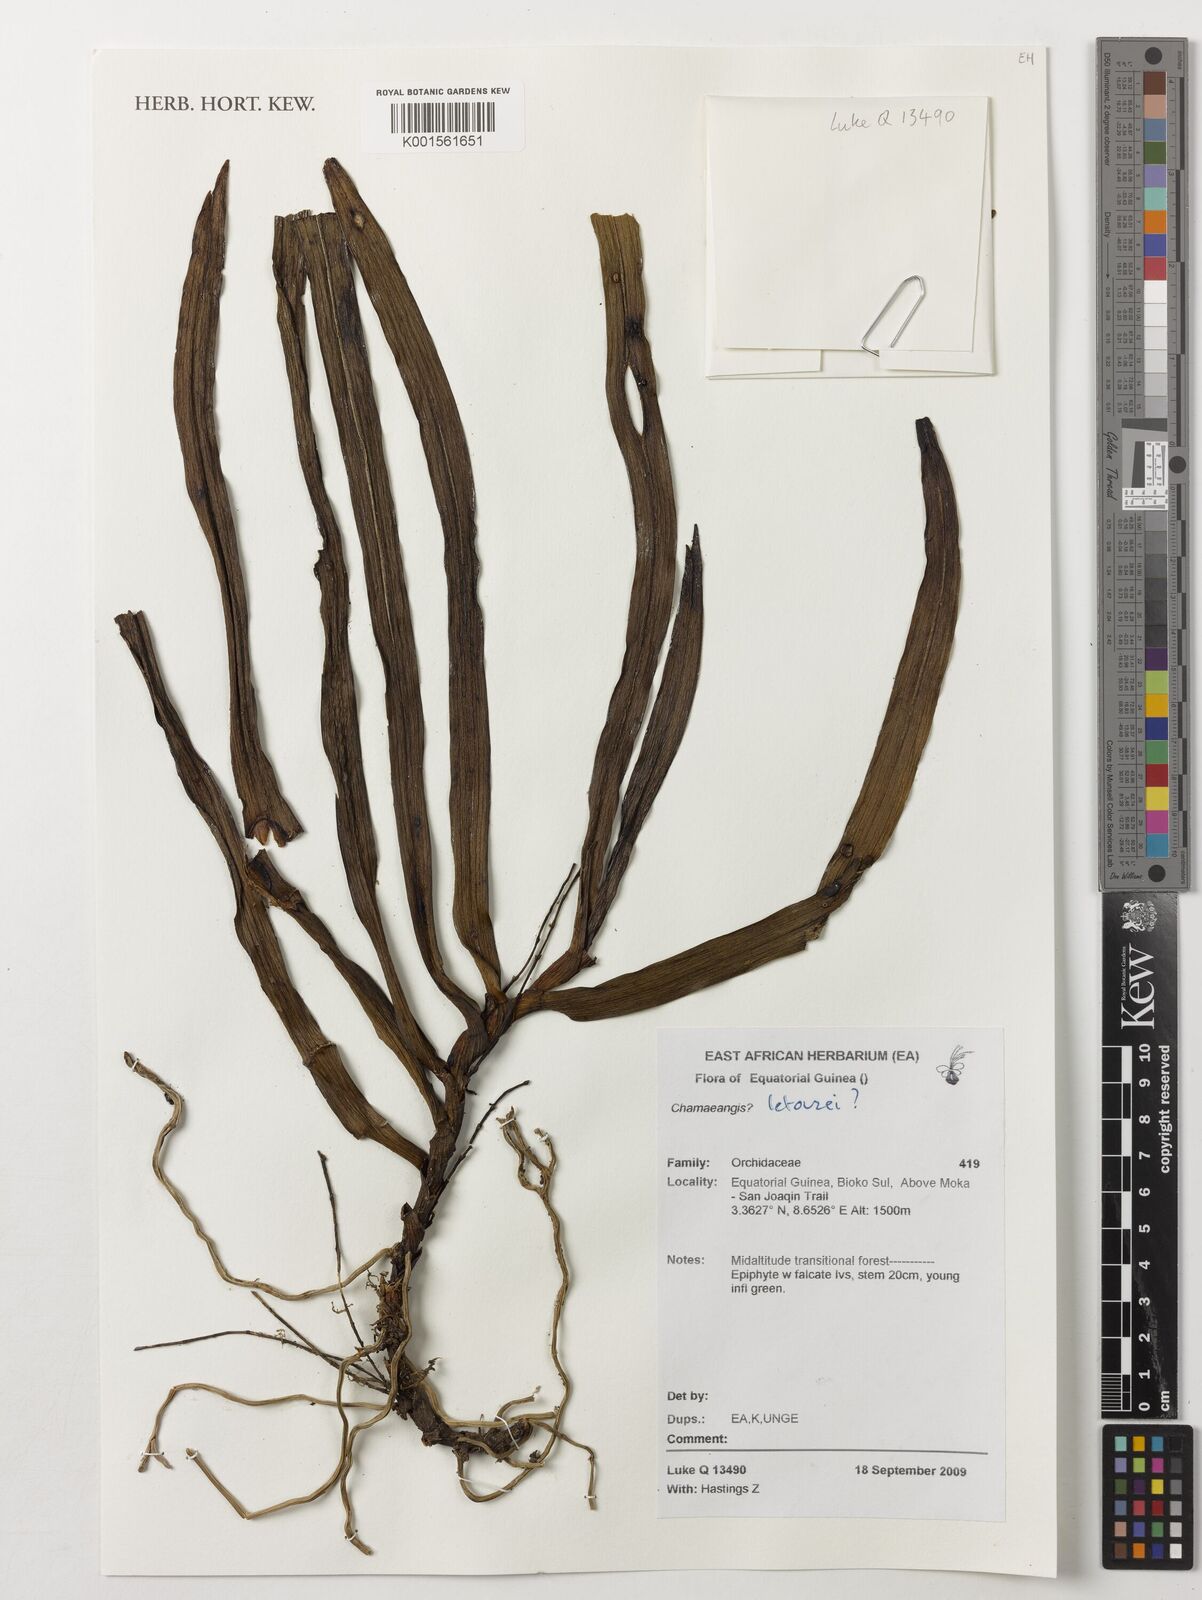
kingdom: Plantae
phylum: Tracheophyta
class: Liliopsida
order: Asparagales
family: Orchidaceae
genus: Diaphananthe
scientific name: Diaphananthe letouzeyi
